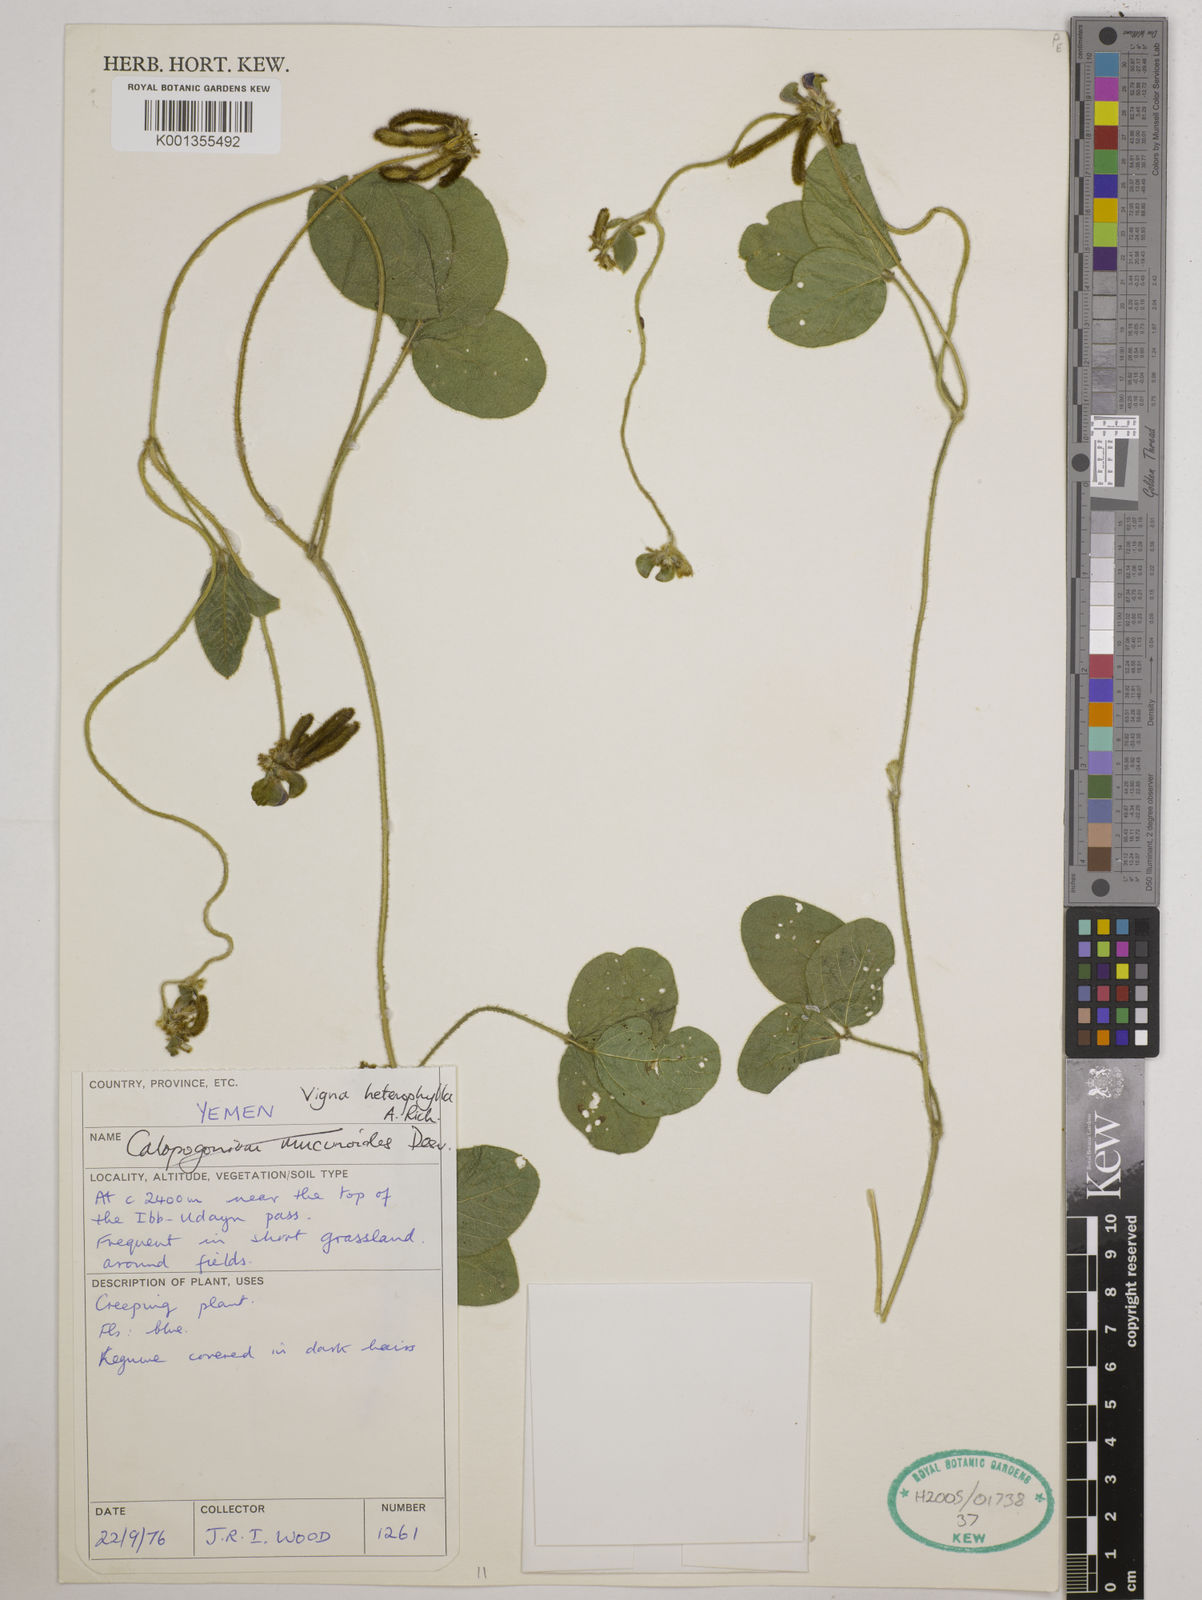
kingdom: Plantae
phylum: Tracheophyta
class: Magnoliopsida
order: Fabales
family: Fabaceae
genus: Vigna
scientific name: Vigna heterophylla
